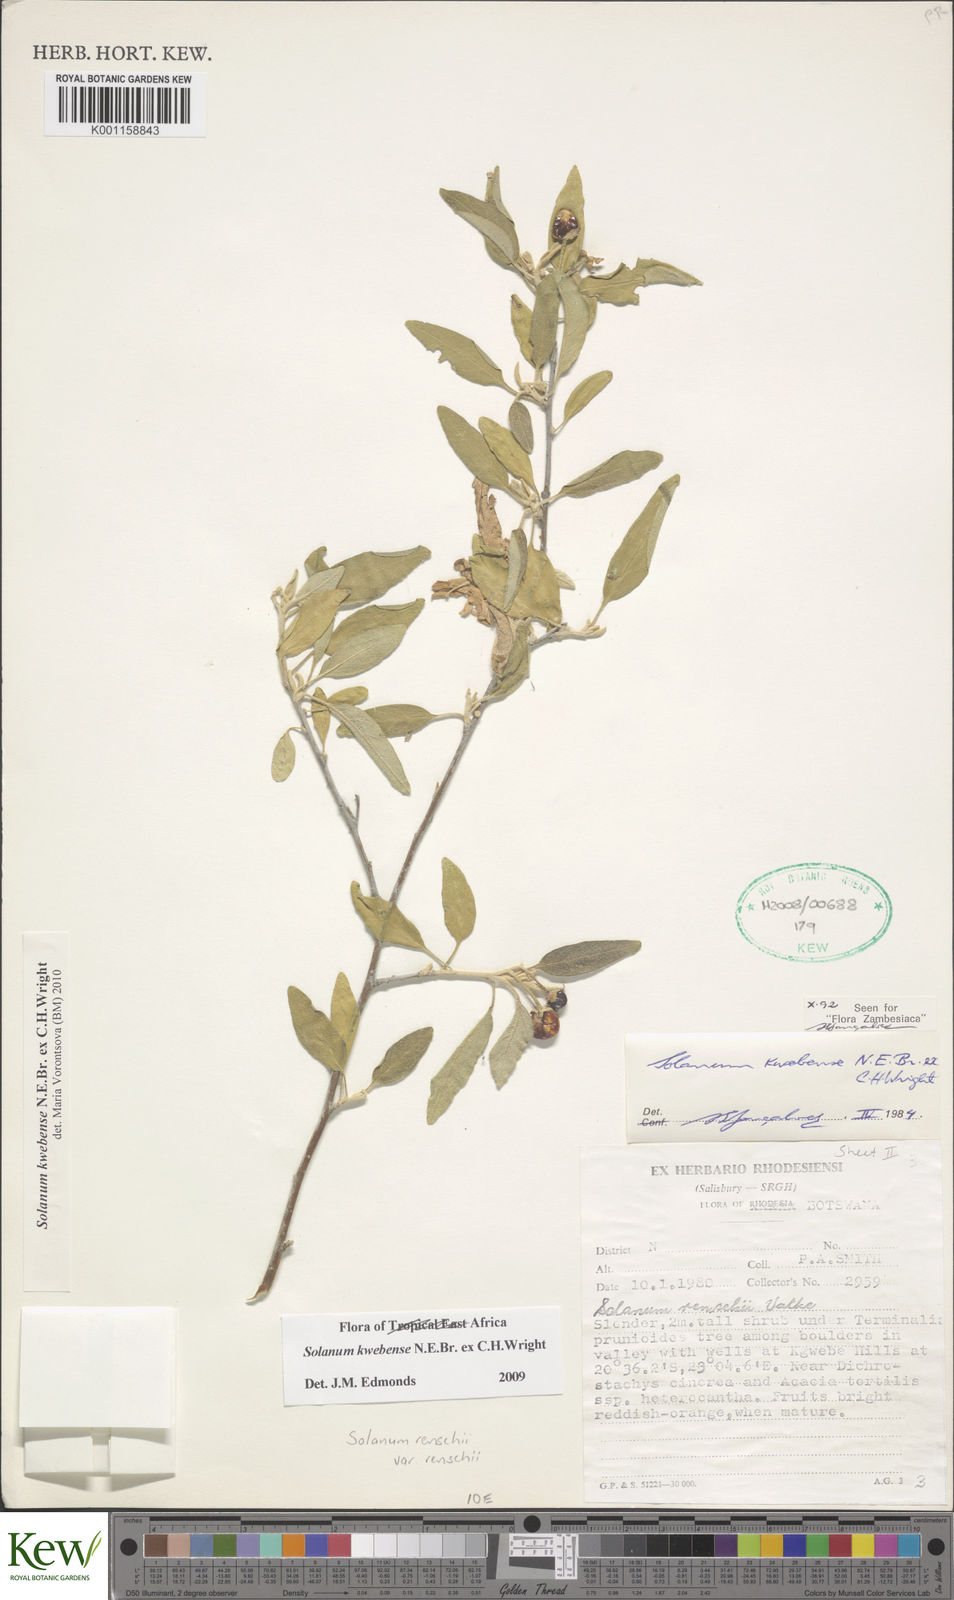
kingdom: Plantae
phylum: Tracheophyta
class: Magnoliopsida
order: Solanales
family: Solanaceae
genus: Solanum
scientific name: Solanum tettense
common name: Mozambique bitter apple
